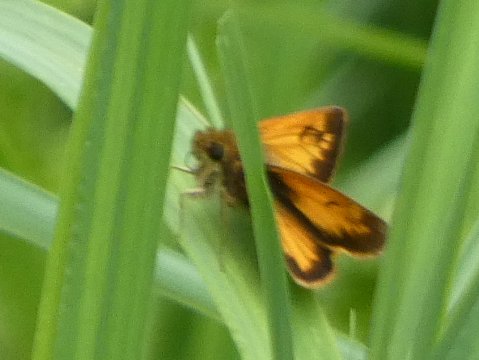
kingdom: Animalia
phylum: Arthropoda
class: Insecta
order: Lepidoptera
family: Hesperiidae
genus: Lon
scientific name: Lon hobomok
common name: Hobomok Skipper
